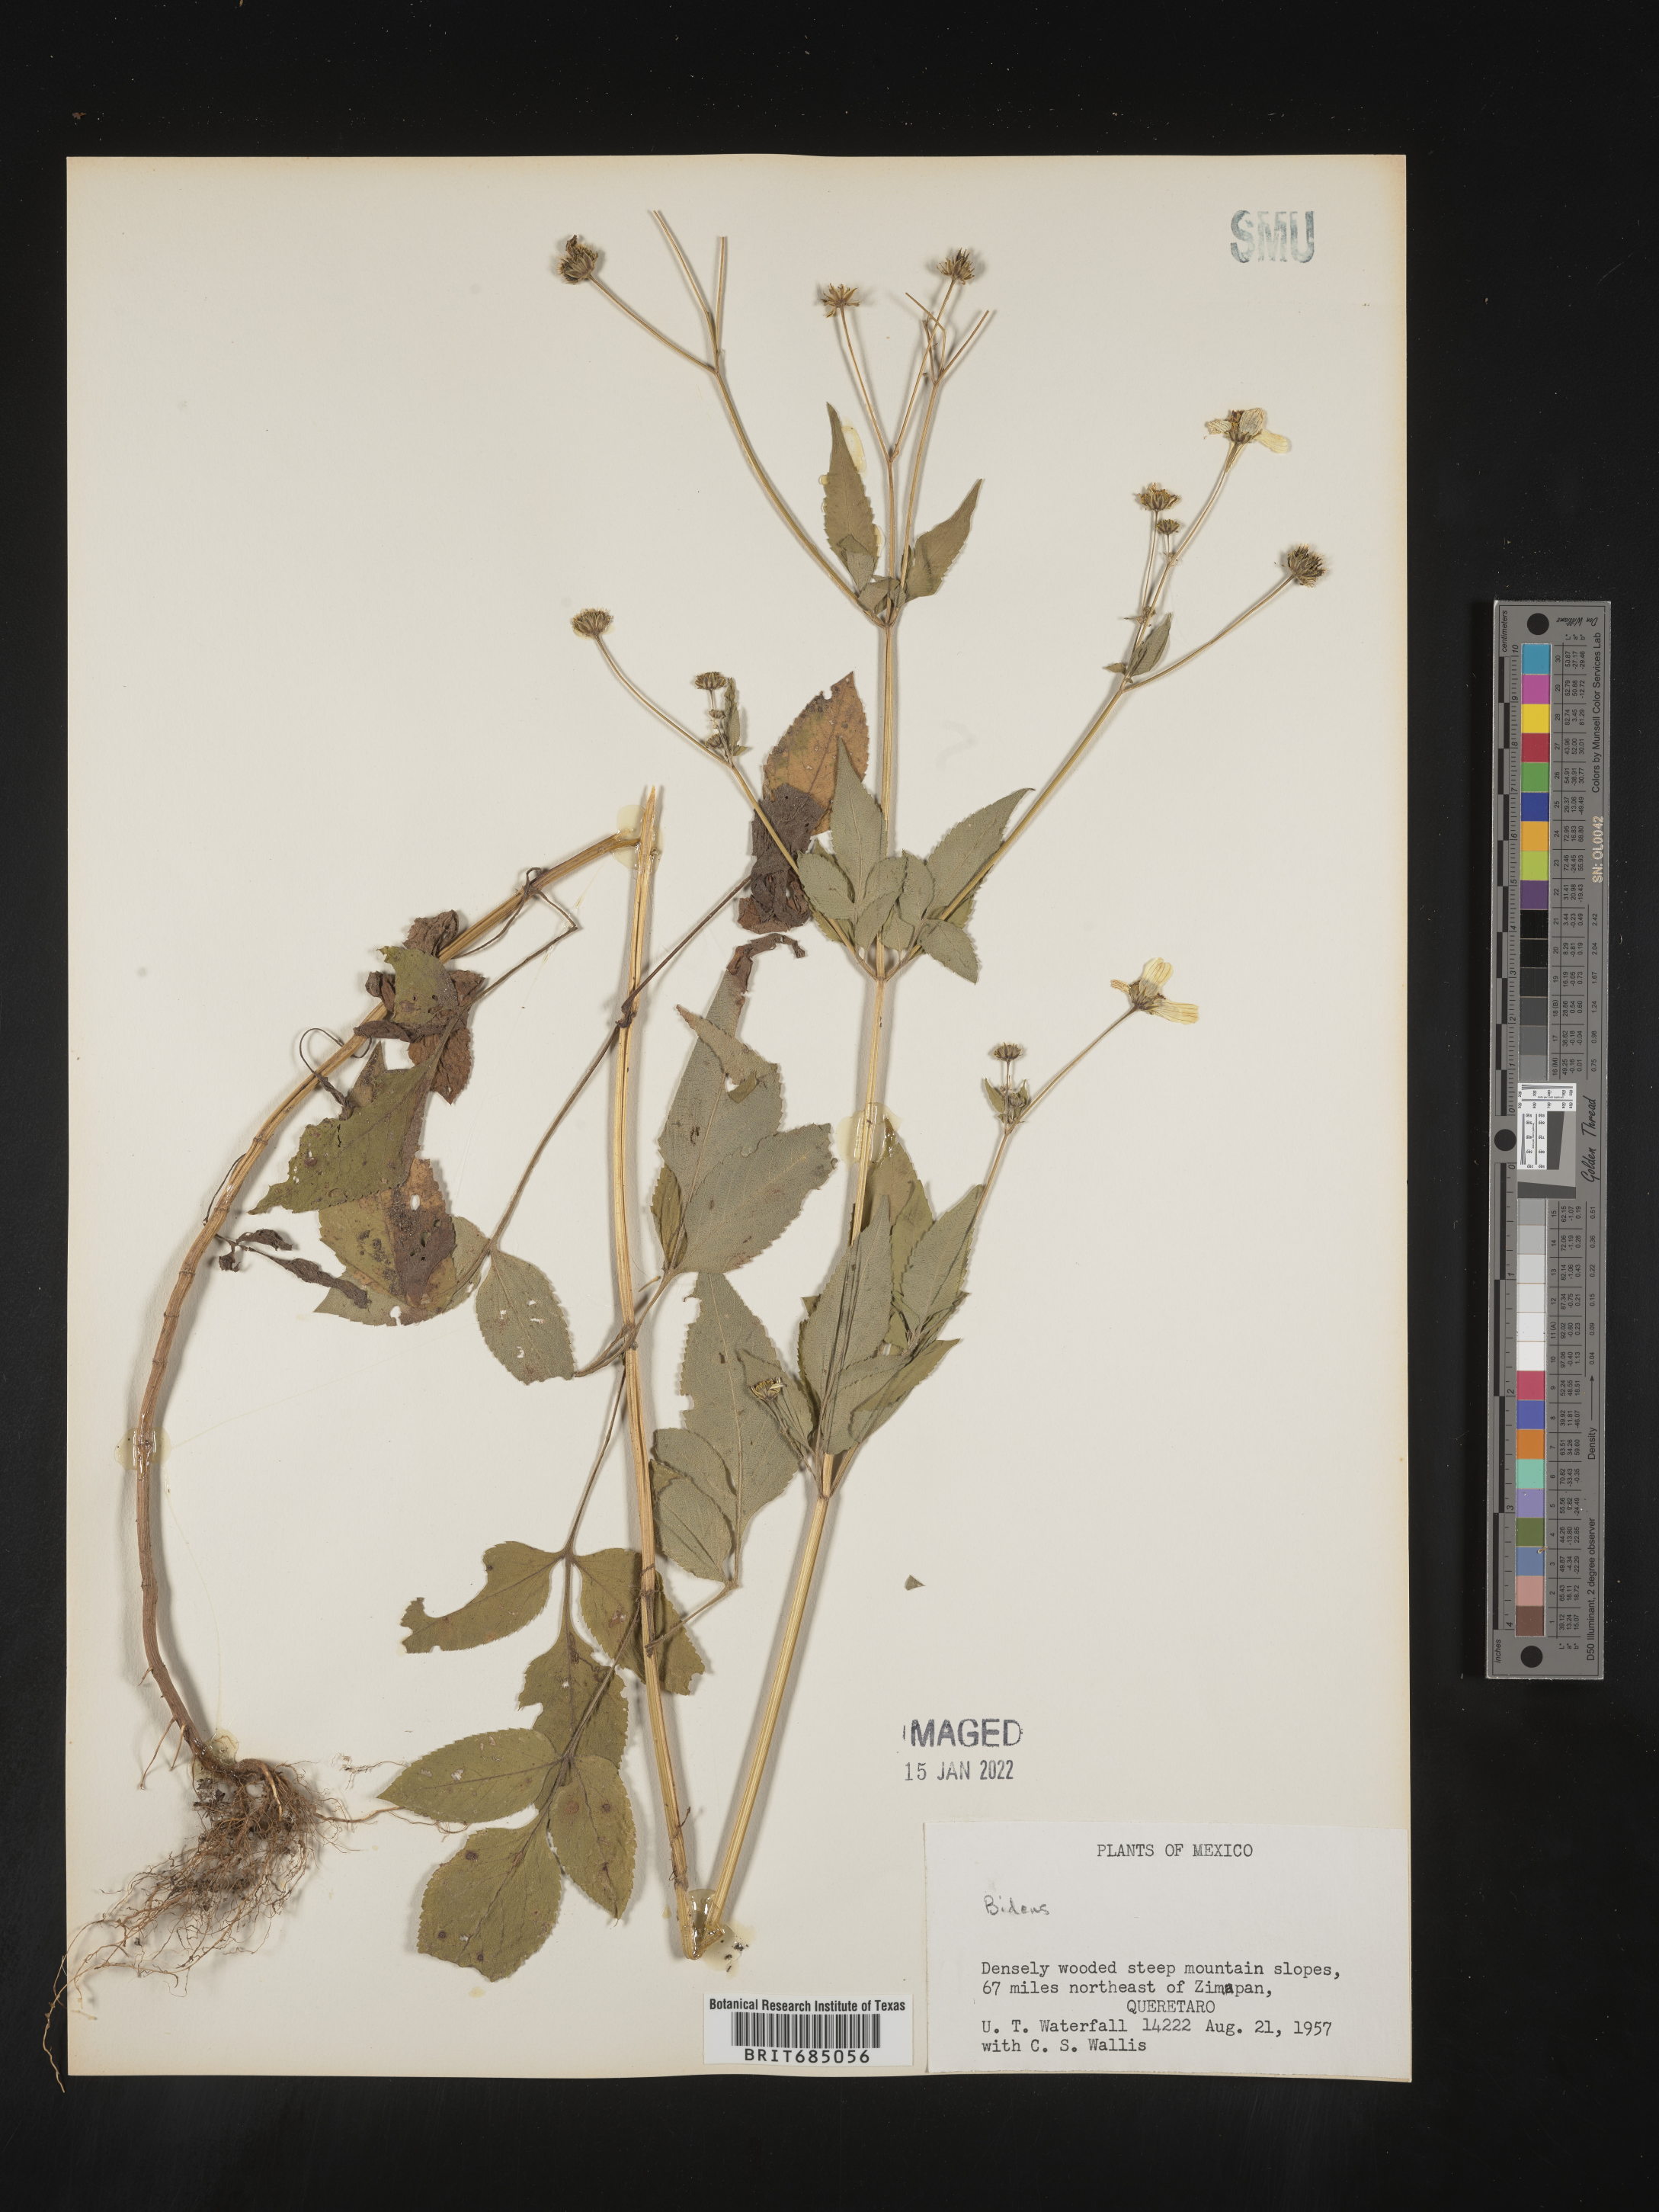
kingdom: Plantae
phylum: Tracheophyta
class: Magnoliopsida
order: Asterales
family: Asteraceae
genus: Bidens
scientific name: Bidens
